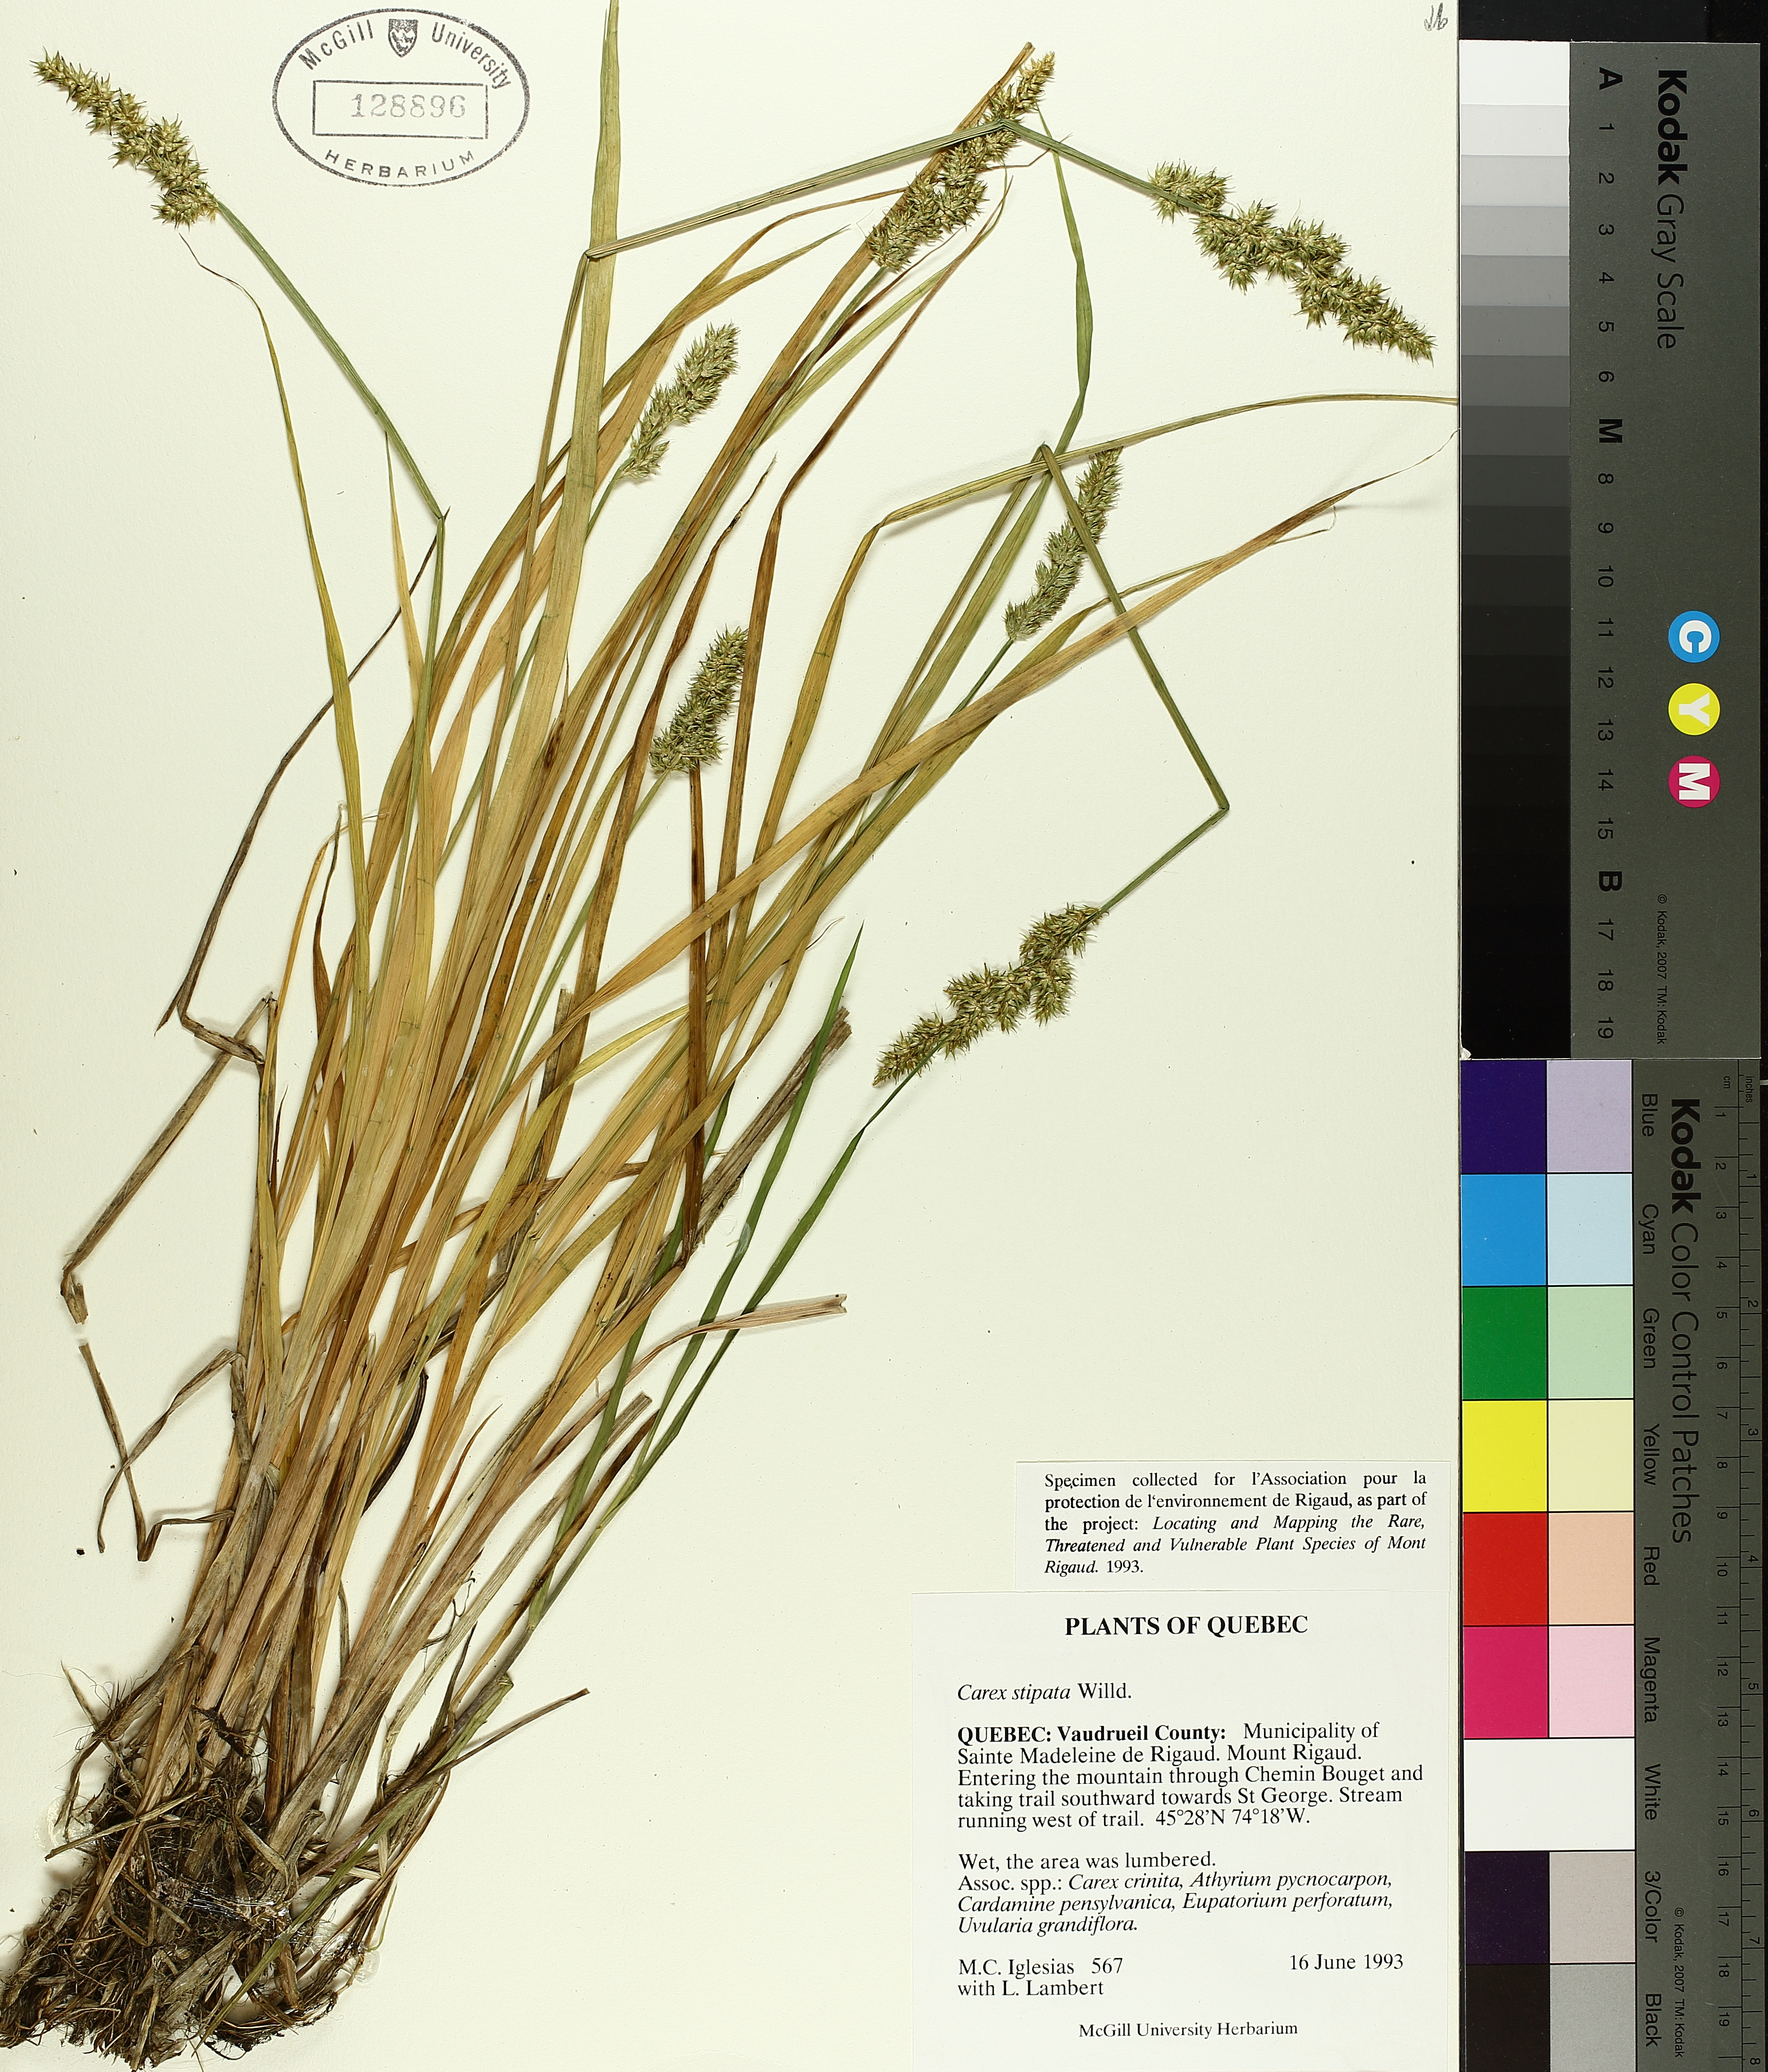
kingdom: Plantae
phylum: Tracheophyta
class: Liliopsida
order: Poales
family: Cyperaceae
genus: Eriophorum
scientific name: Eriophorum vaginatum
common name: Hare's-tail cottongrass
